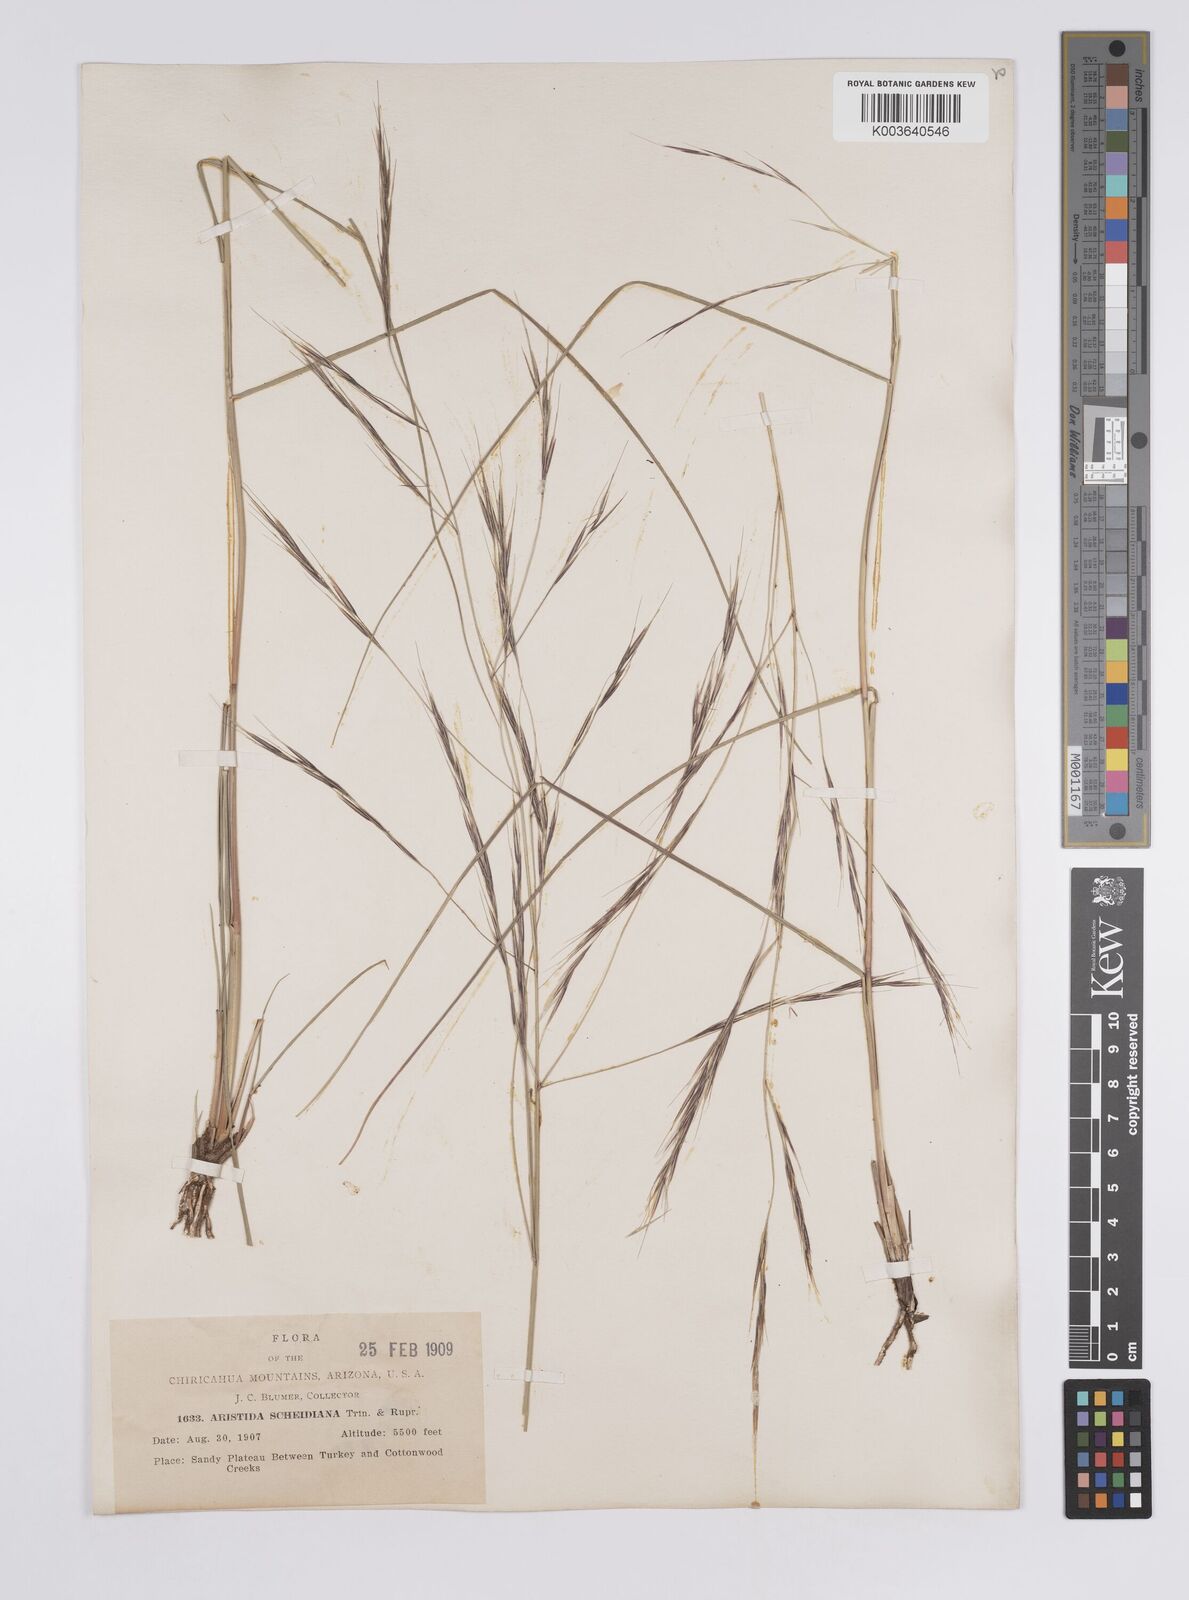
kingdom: Plantae
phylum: Tracheophyta
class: Liliopsida
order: Poales
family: Poaceae
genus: Aristida
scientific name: Aristida schiedeana
